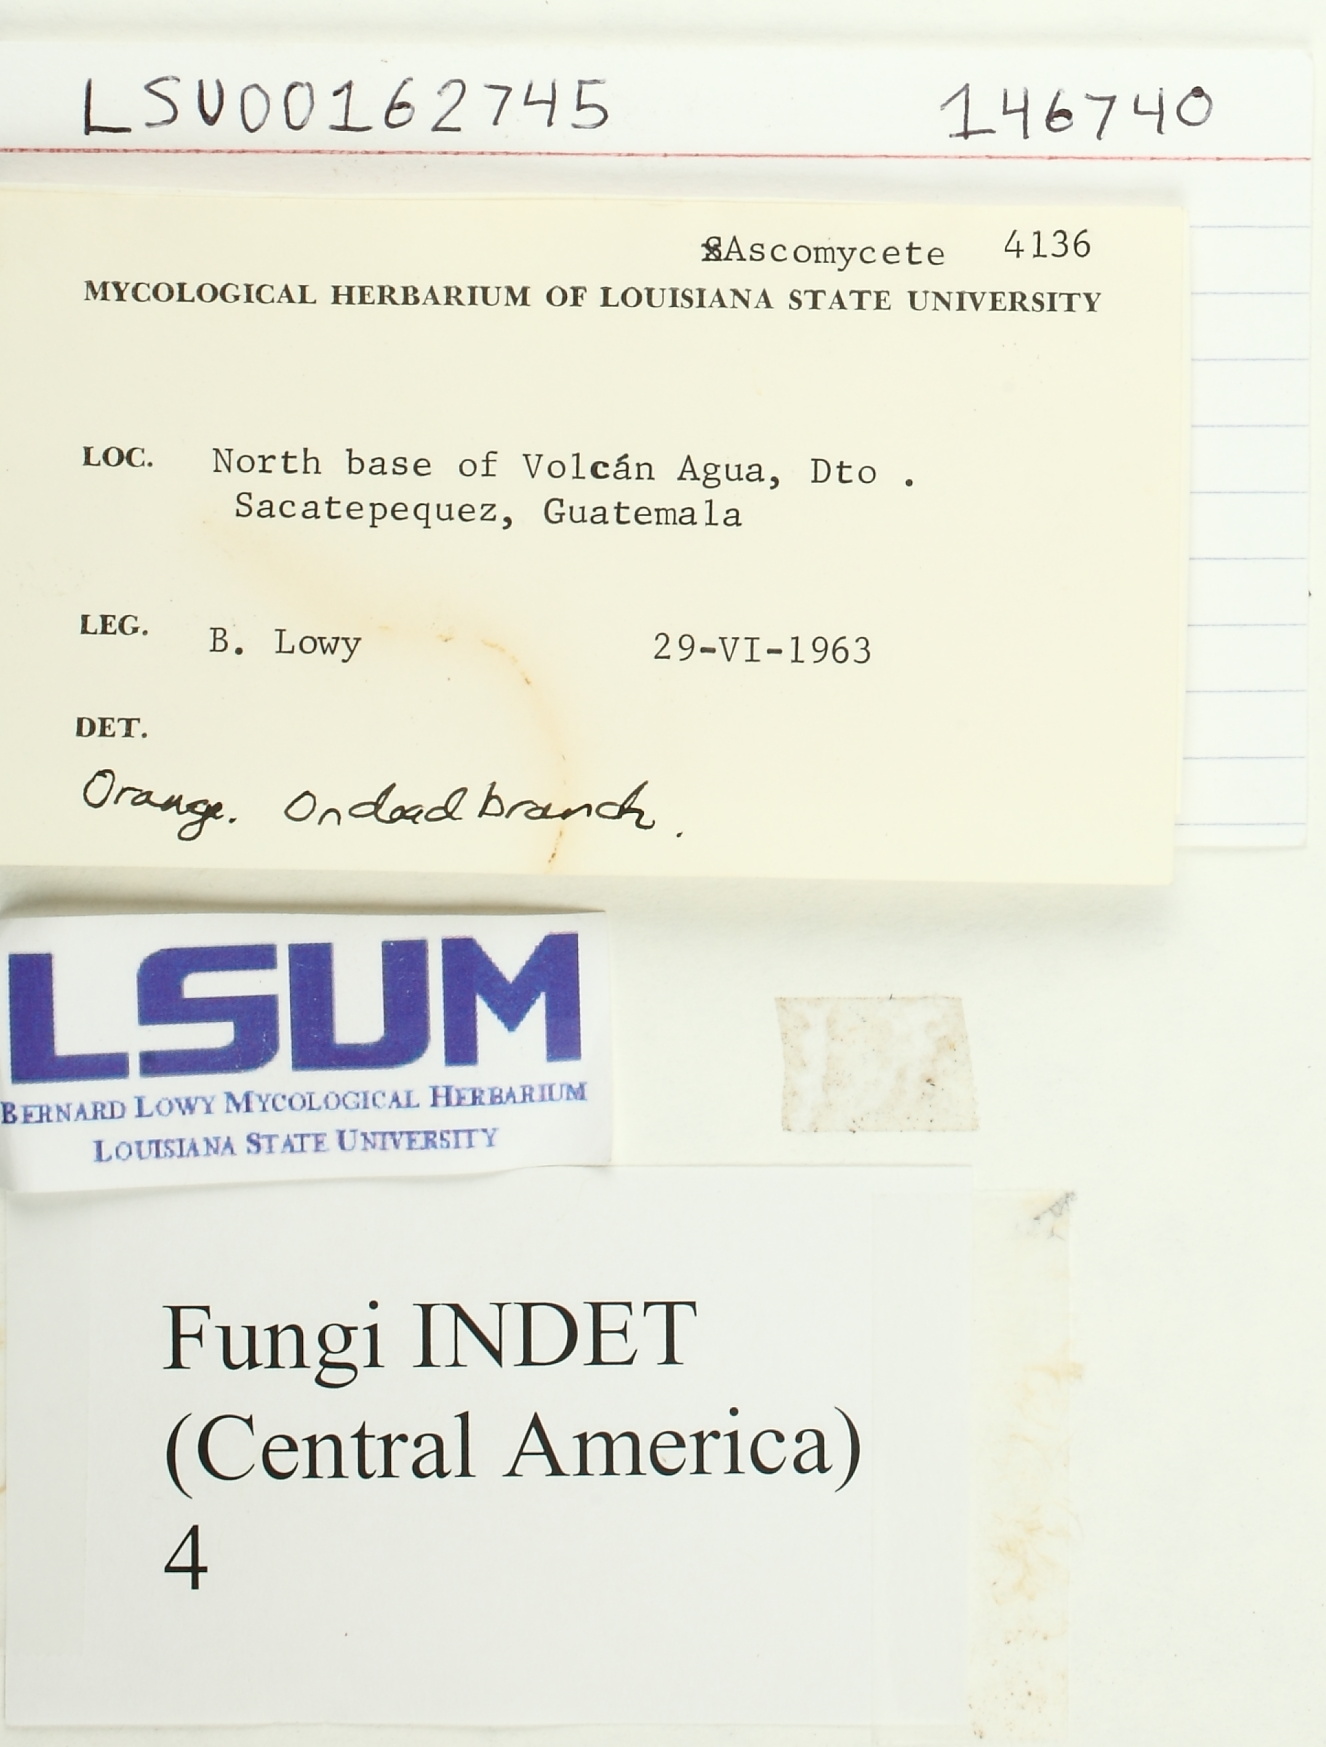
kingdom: Fungi
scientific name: Fungi
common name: Fungi
